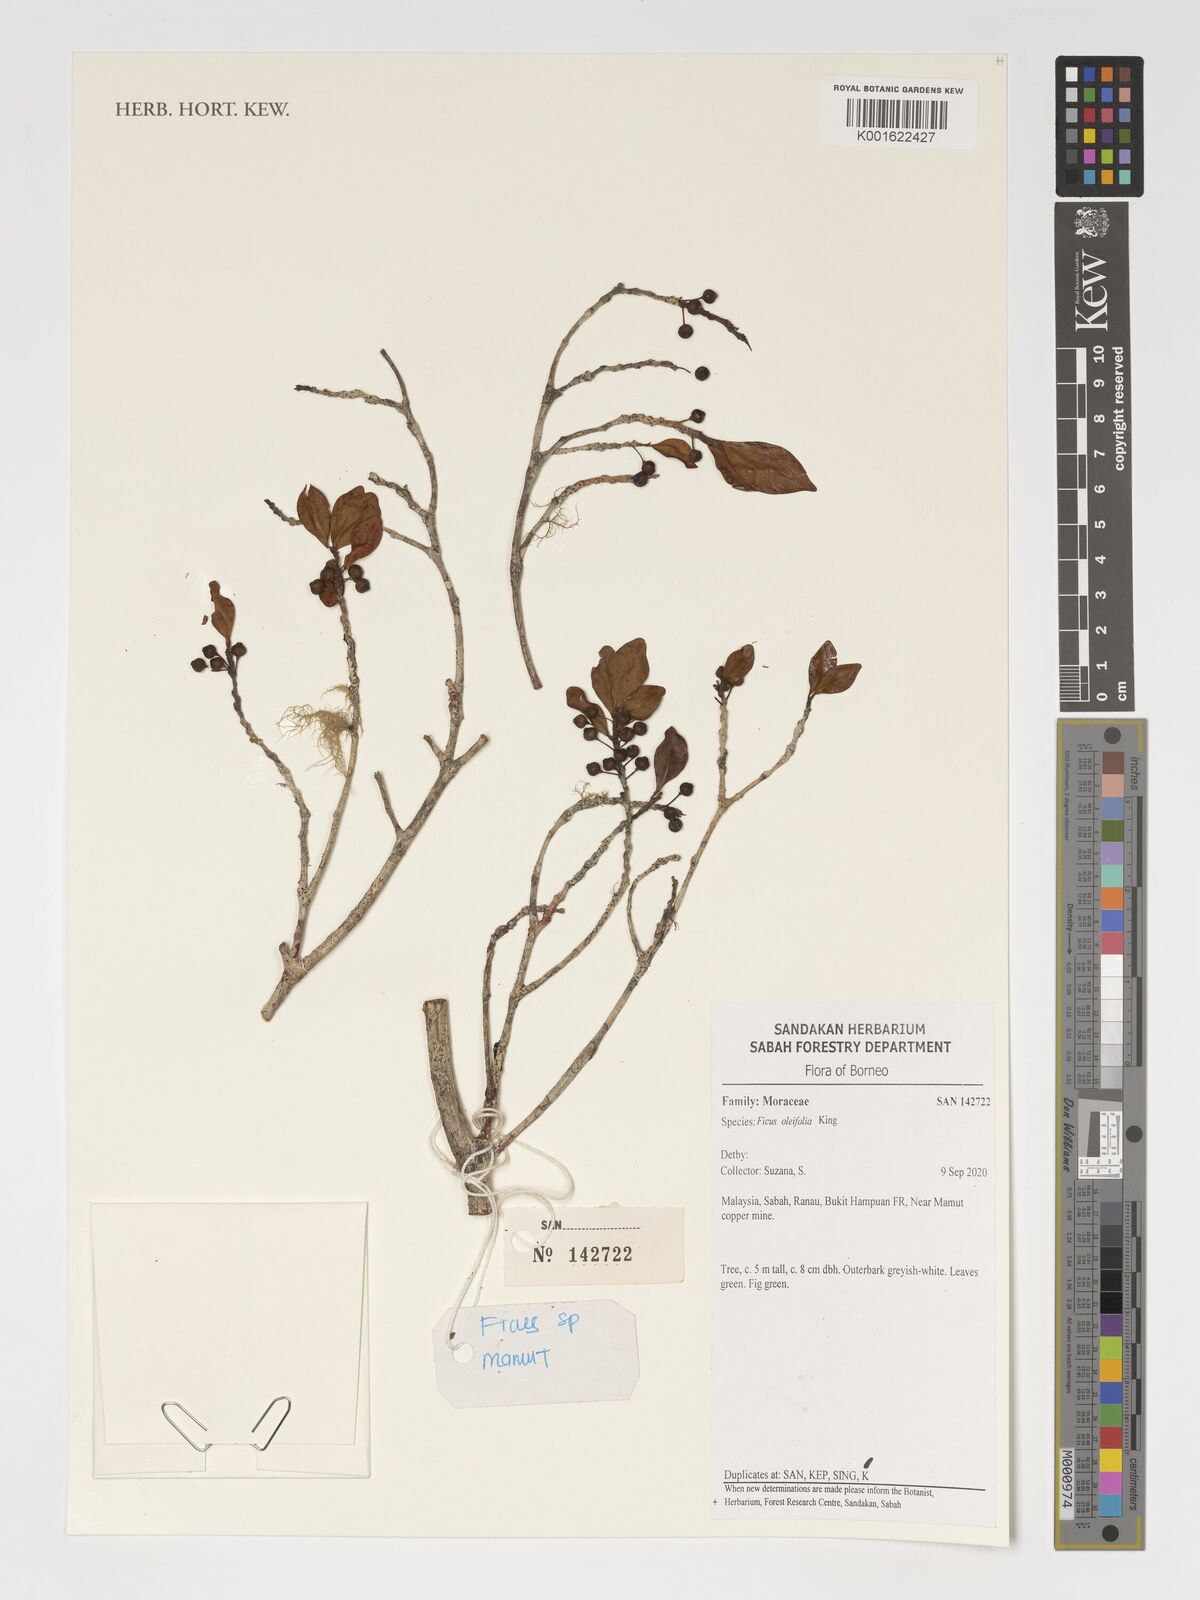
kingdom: Plantae
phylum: Tracheophyta
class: Magnoliopsida
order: Rosales
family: Moraceae
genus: Ficus
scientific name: Ficus oleifolia
